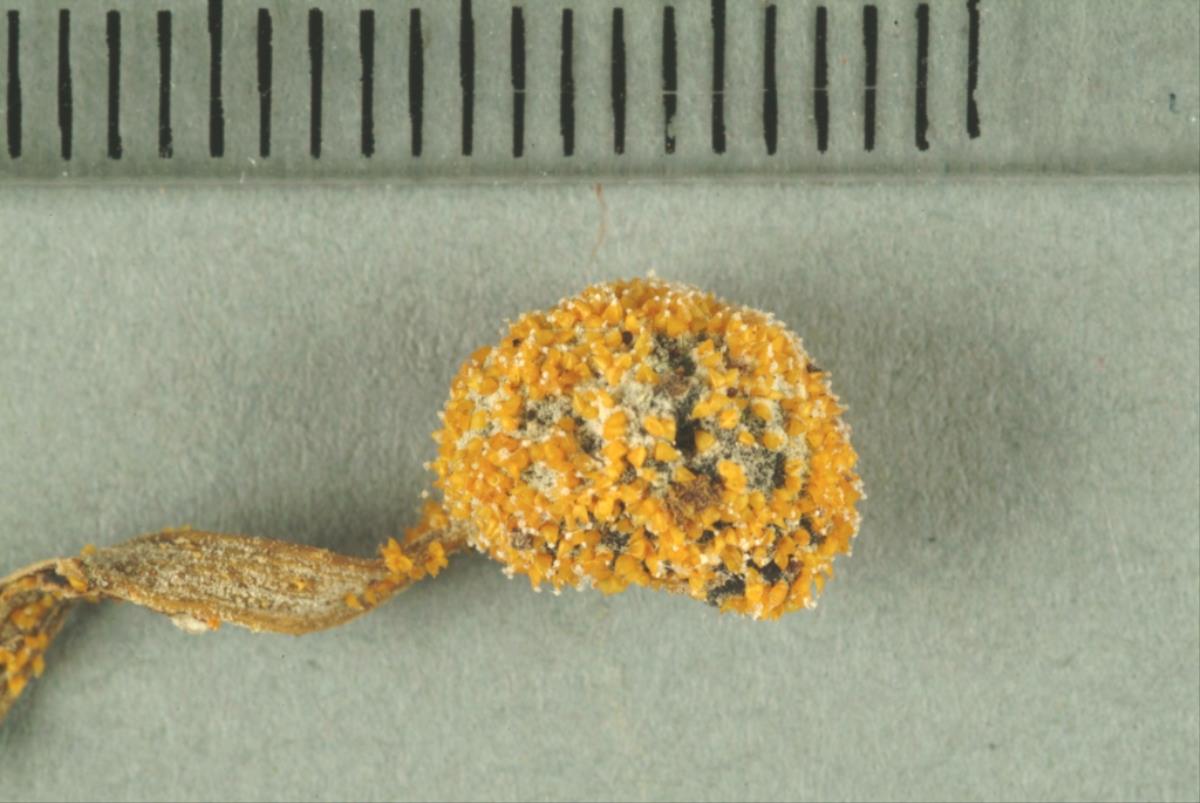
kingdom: Fungi
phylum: Ascomycota
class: Sordariomycetes
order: Hypocreales
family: Clavicipitaceae
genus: Neobarya
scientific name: Neobarya agaricicola
